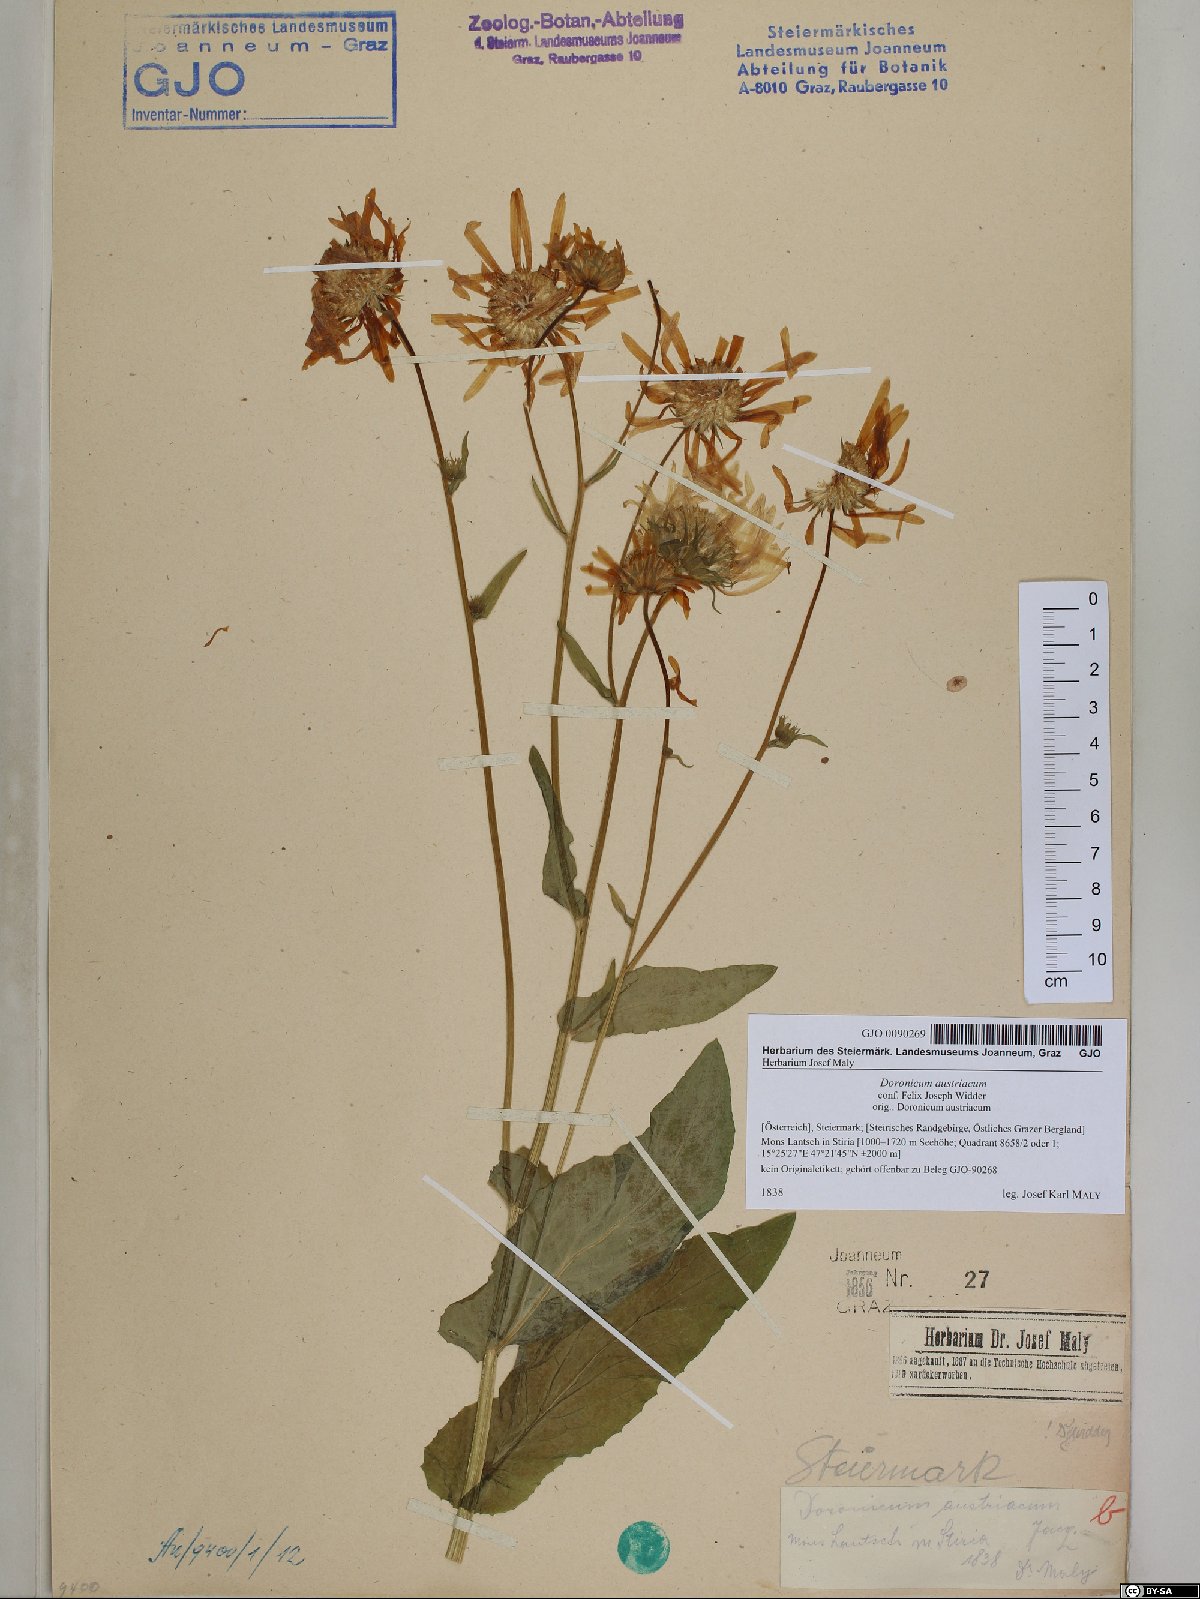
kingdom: Plantae
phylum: Tracheophyta
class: Magnoliopsida
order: Asterales
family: Asteraceae
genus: Doronicum
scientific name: Doronicum austriacum
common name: Austrian leopard's-bane
